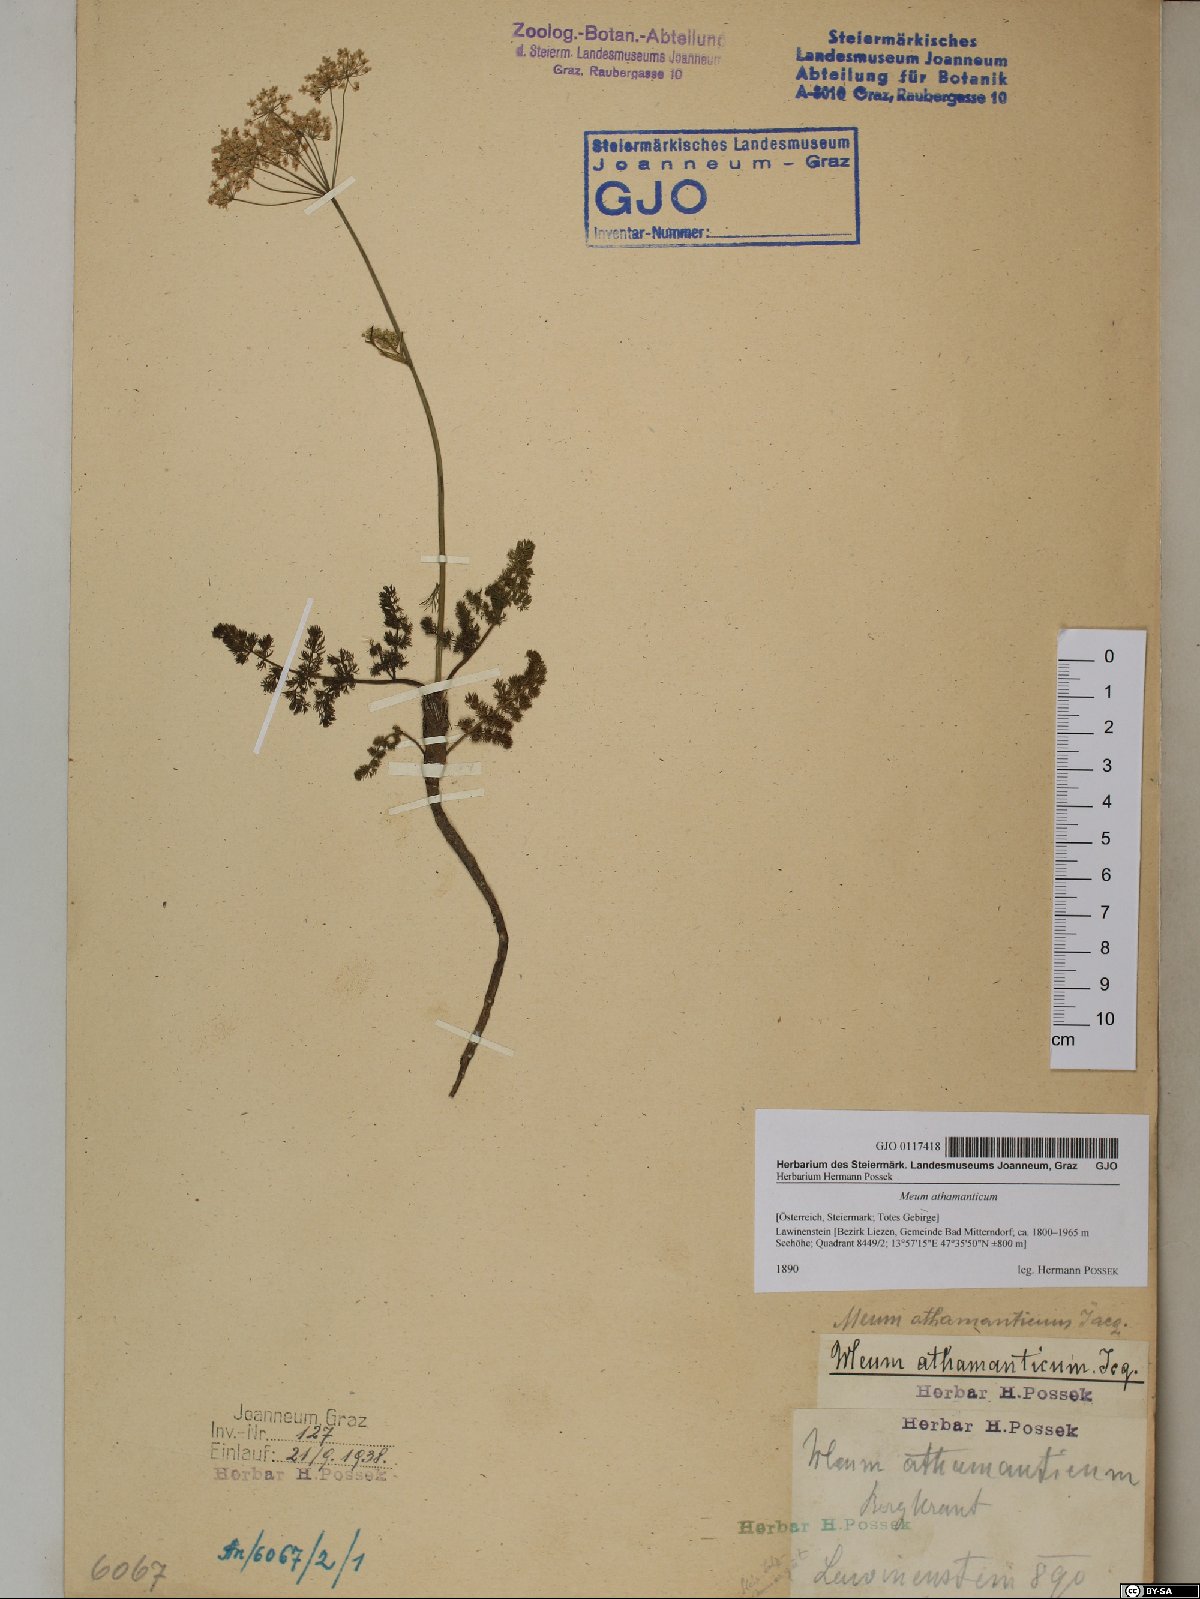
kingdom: Plantae
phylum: Tracheophyta
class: Magnoliopsida
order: Apiales
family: Apiaceae
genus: Meum
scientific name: Meum athamanticum
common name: Spignel
